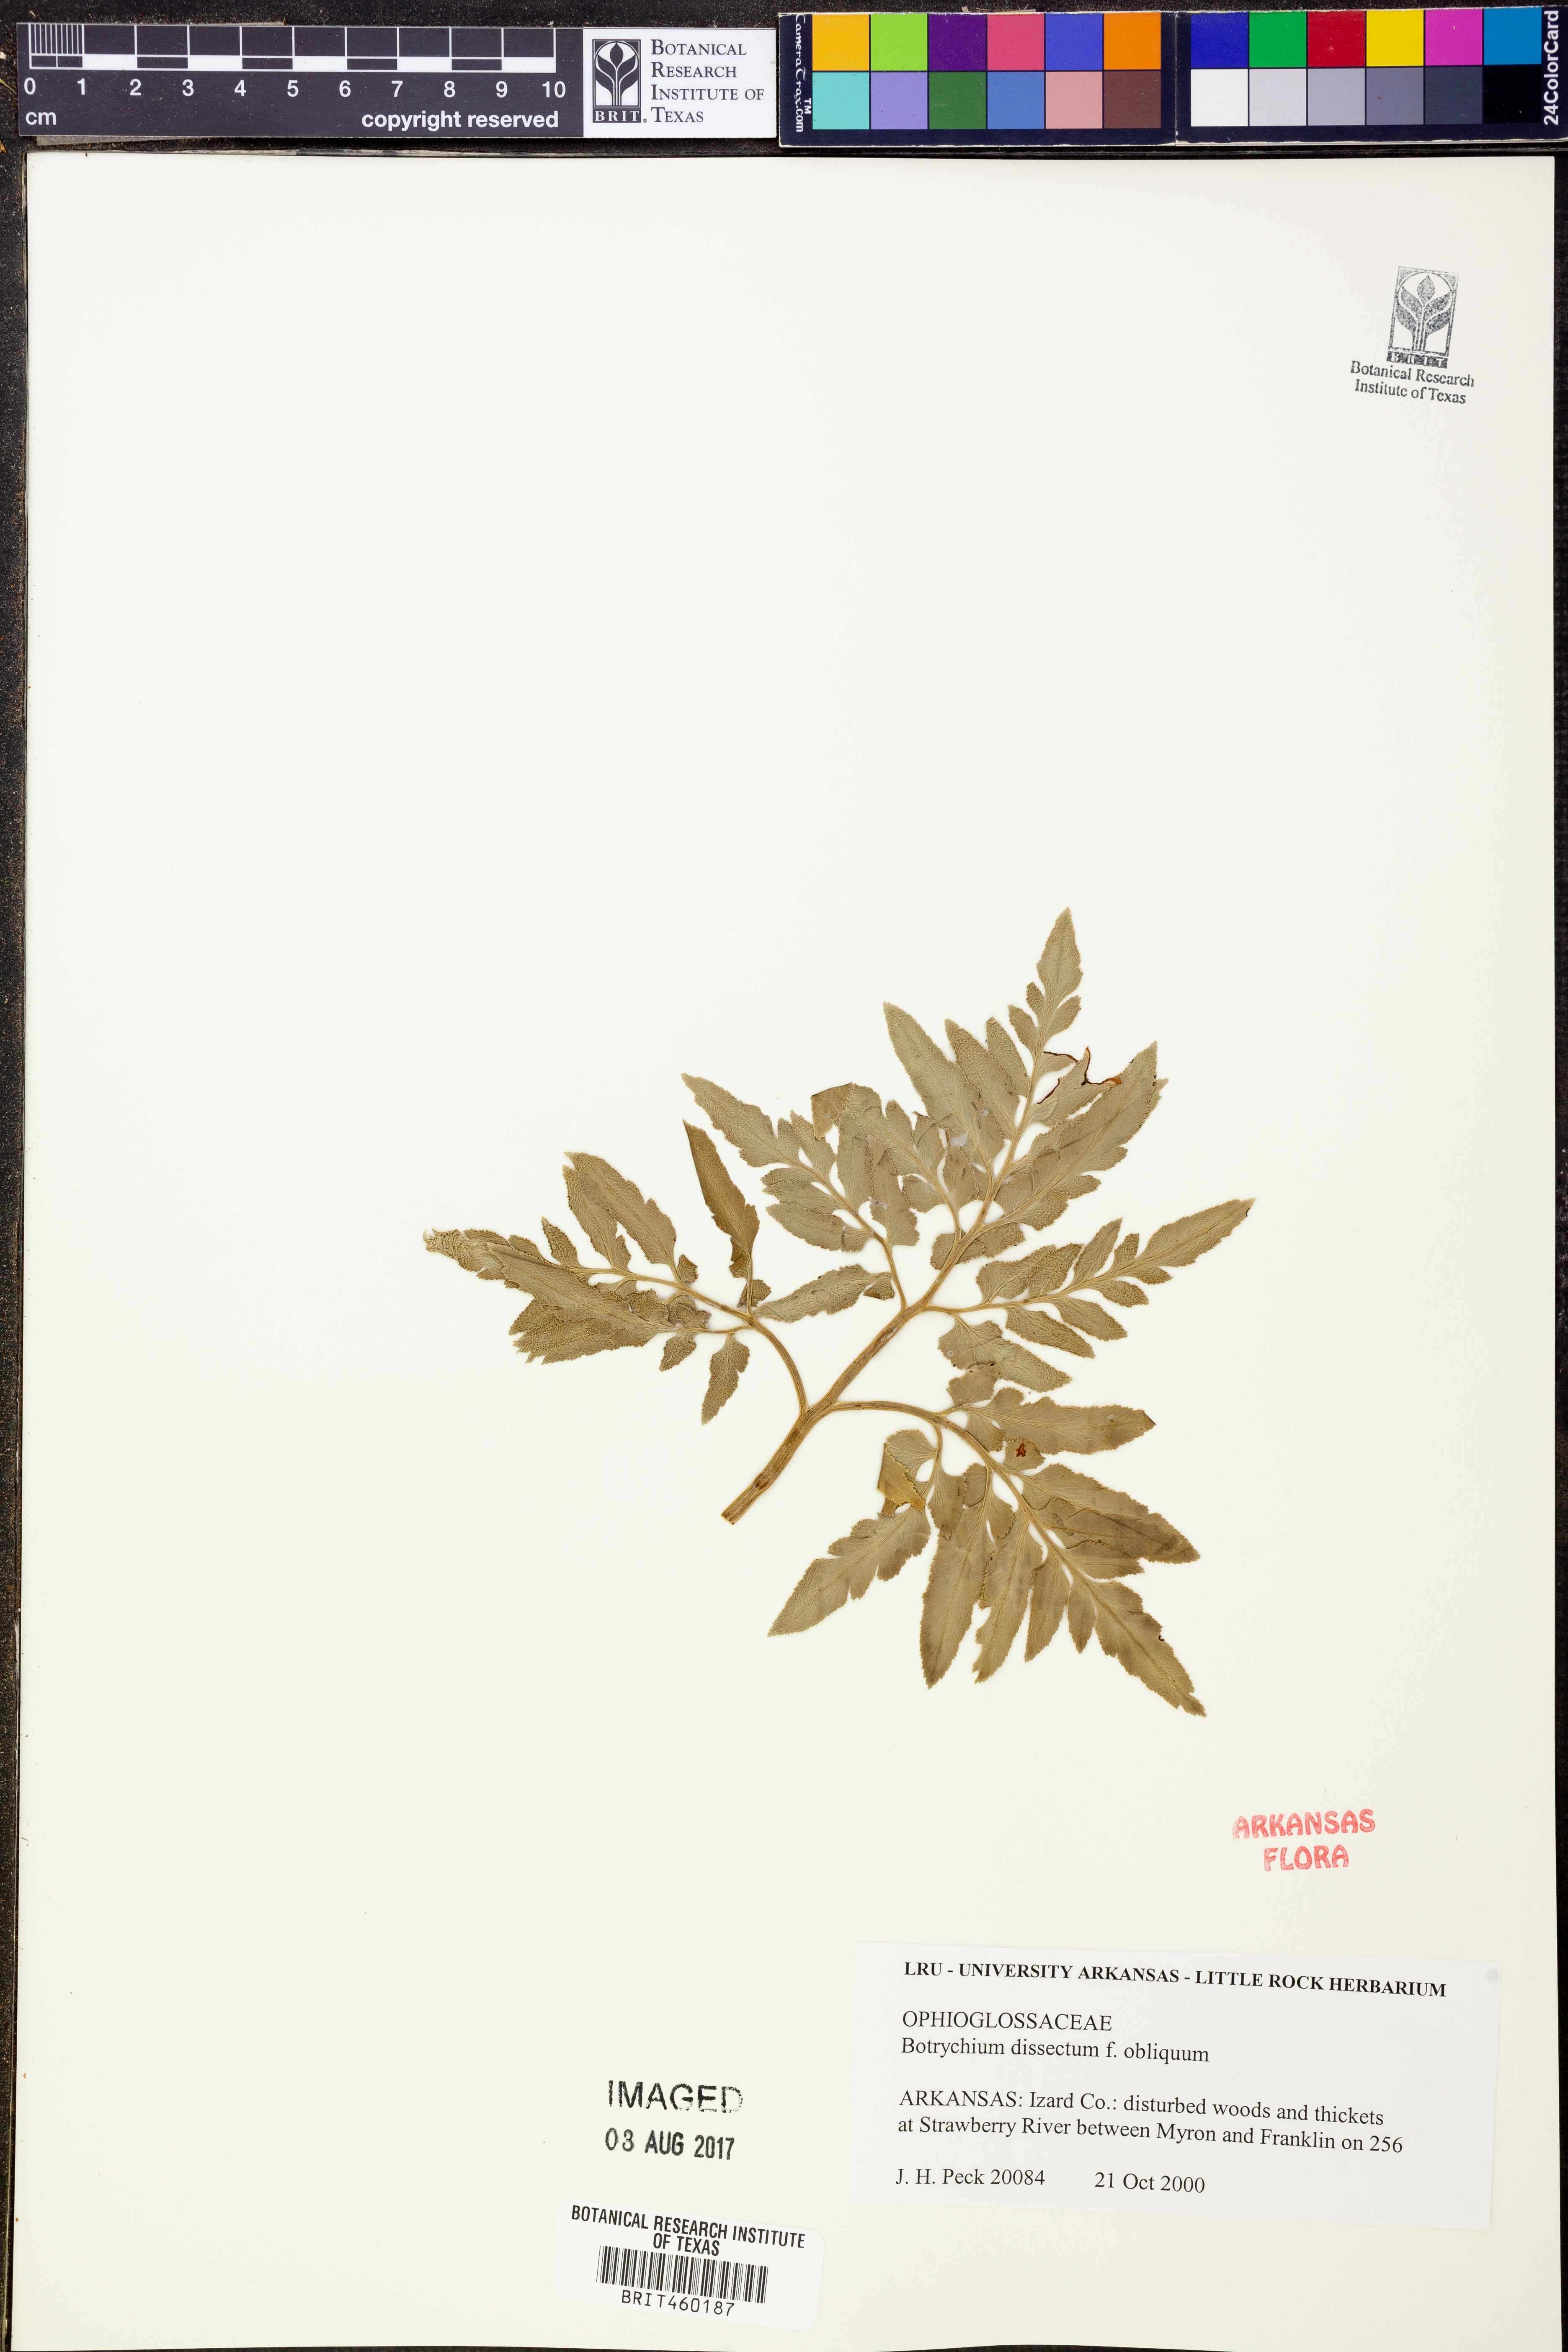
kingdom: Plantae
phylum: Tracheophyta
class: Polypodiopsida
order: Ophioglossales
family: Ophioglossaceae
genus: Sceptridium
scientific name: Sceptridium dissectum
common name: Cut-leaved grapefern
